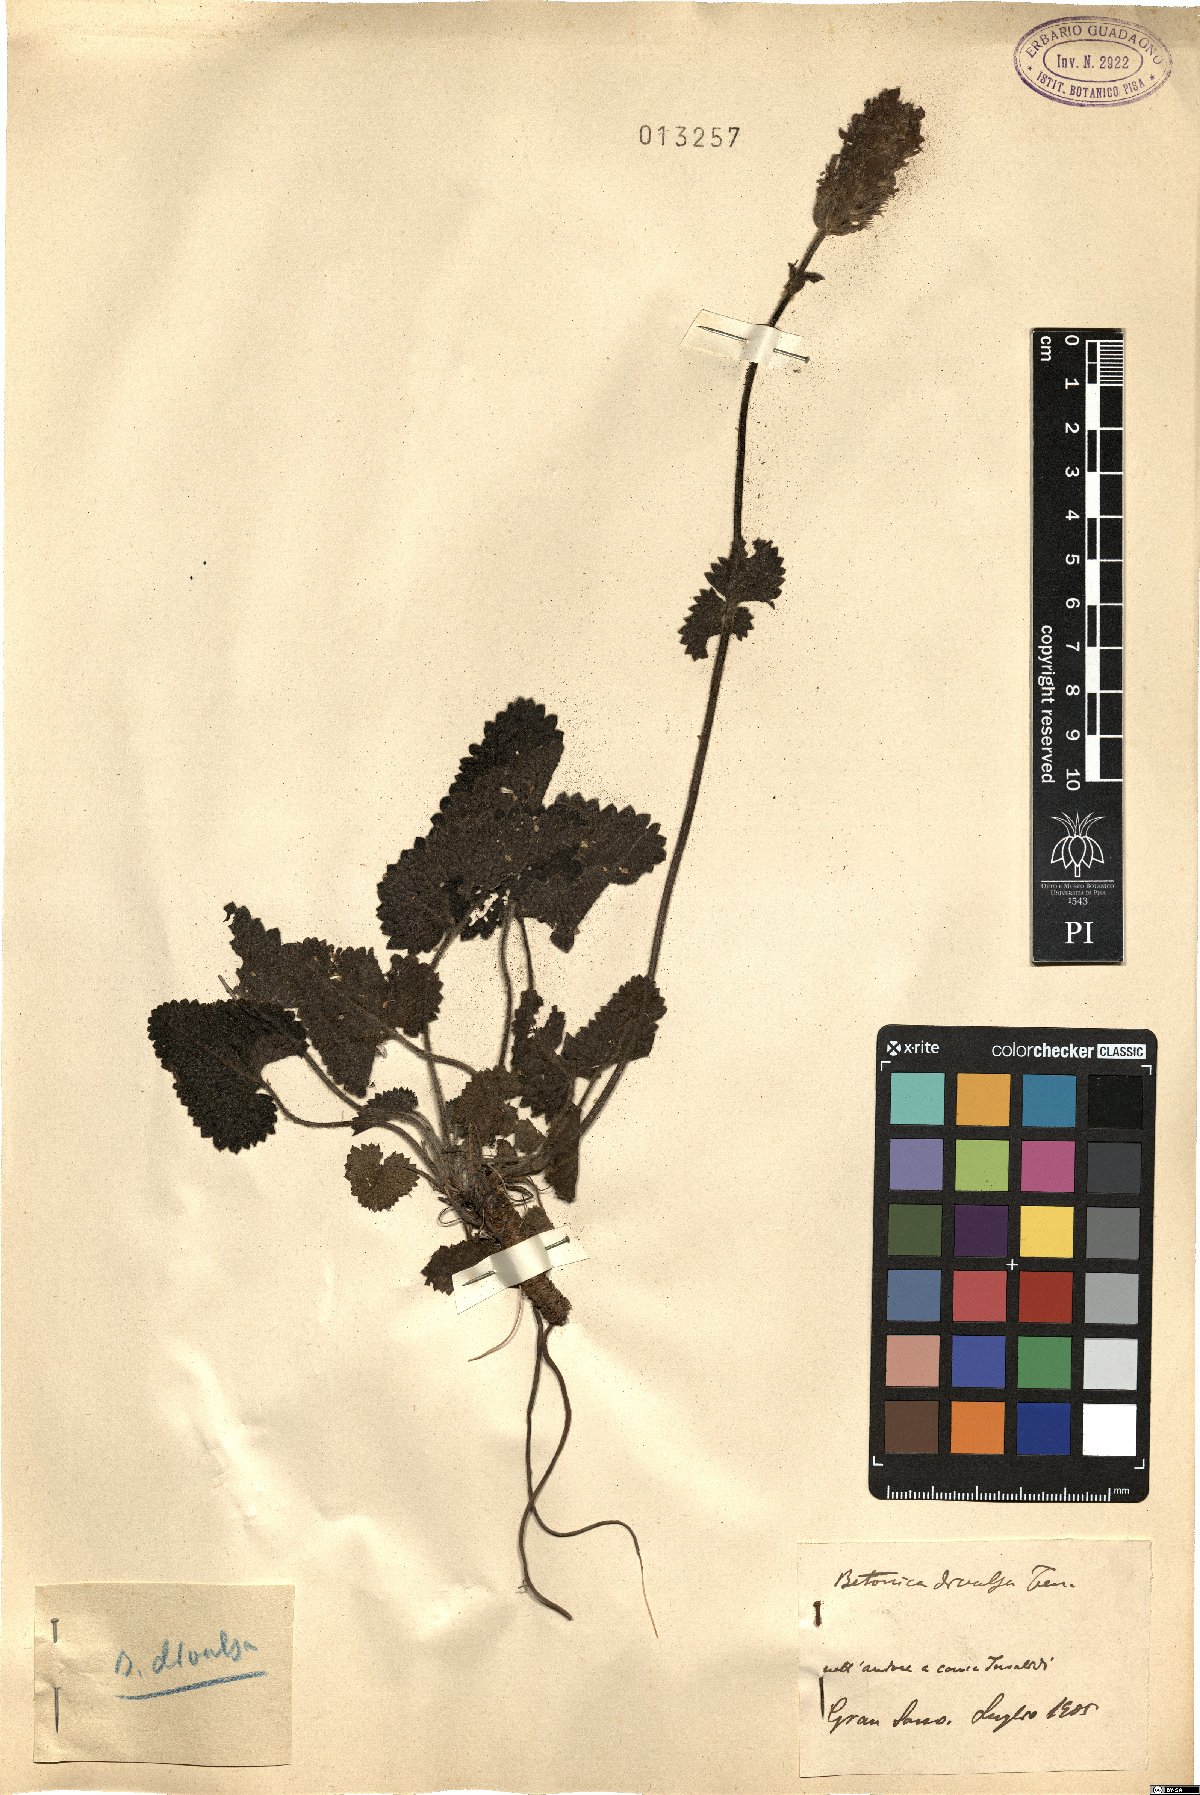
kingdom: Plantae
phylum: Tracheophyta
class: Magnoliopsida
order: Lamiales
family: Lamiaceae
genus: Betonica
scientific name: Betonica alopecuros
